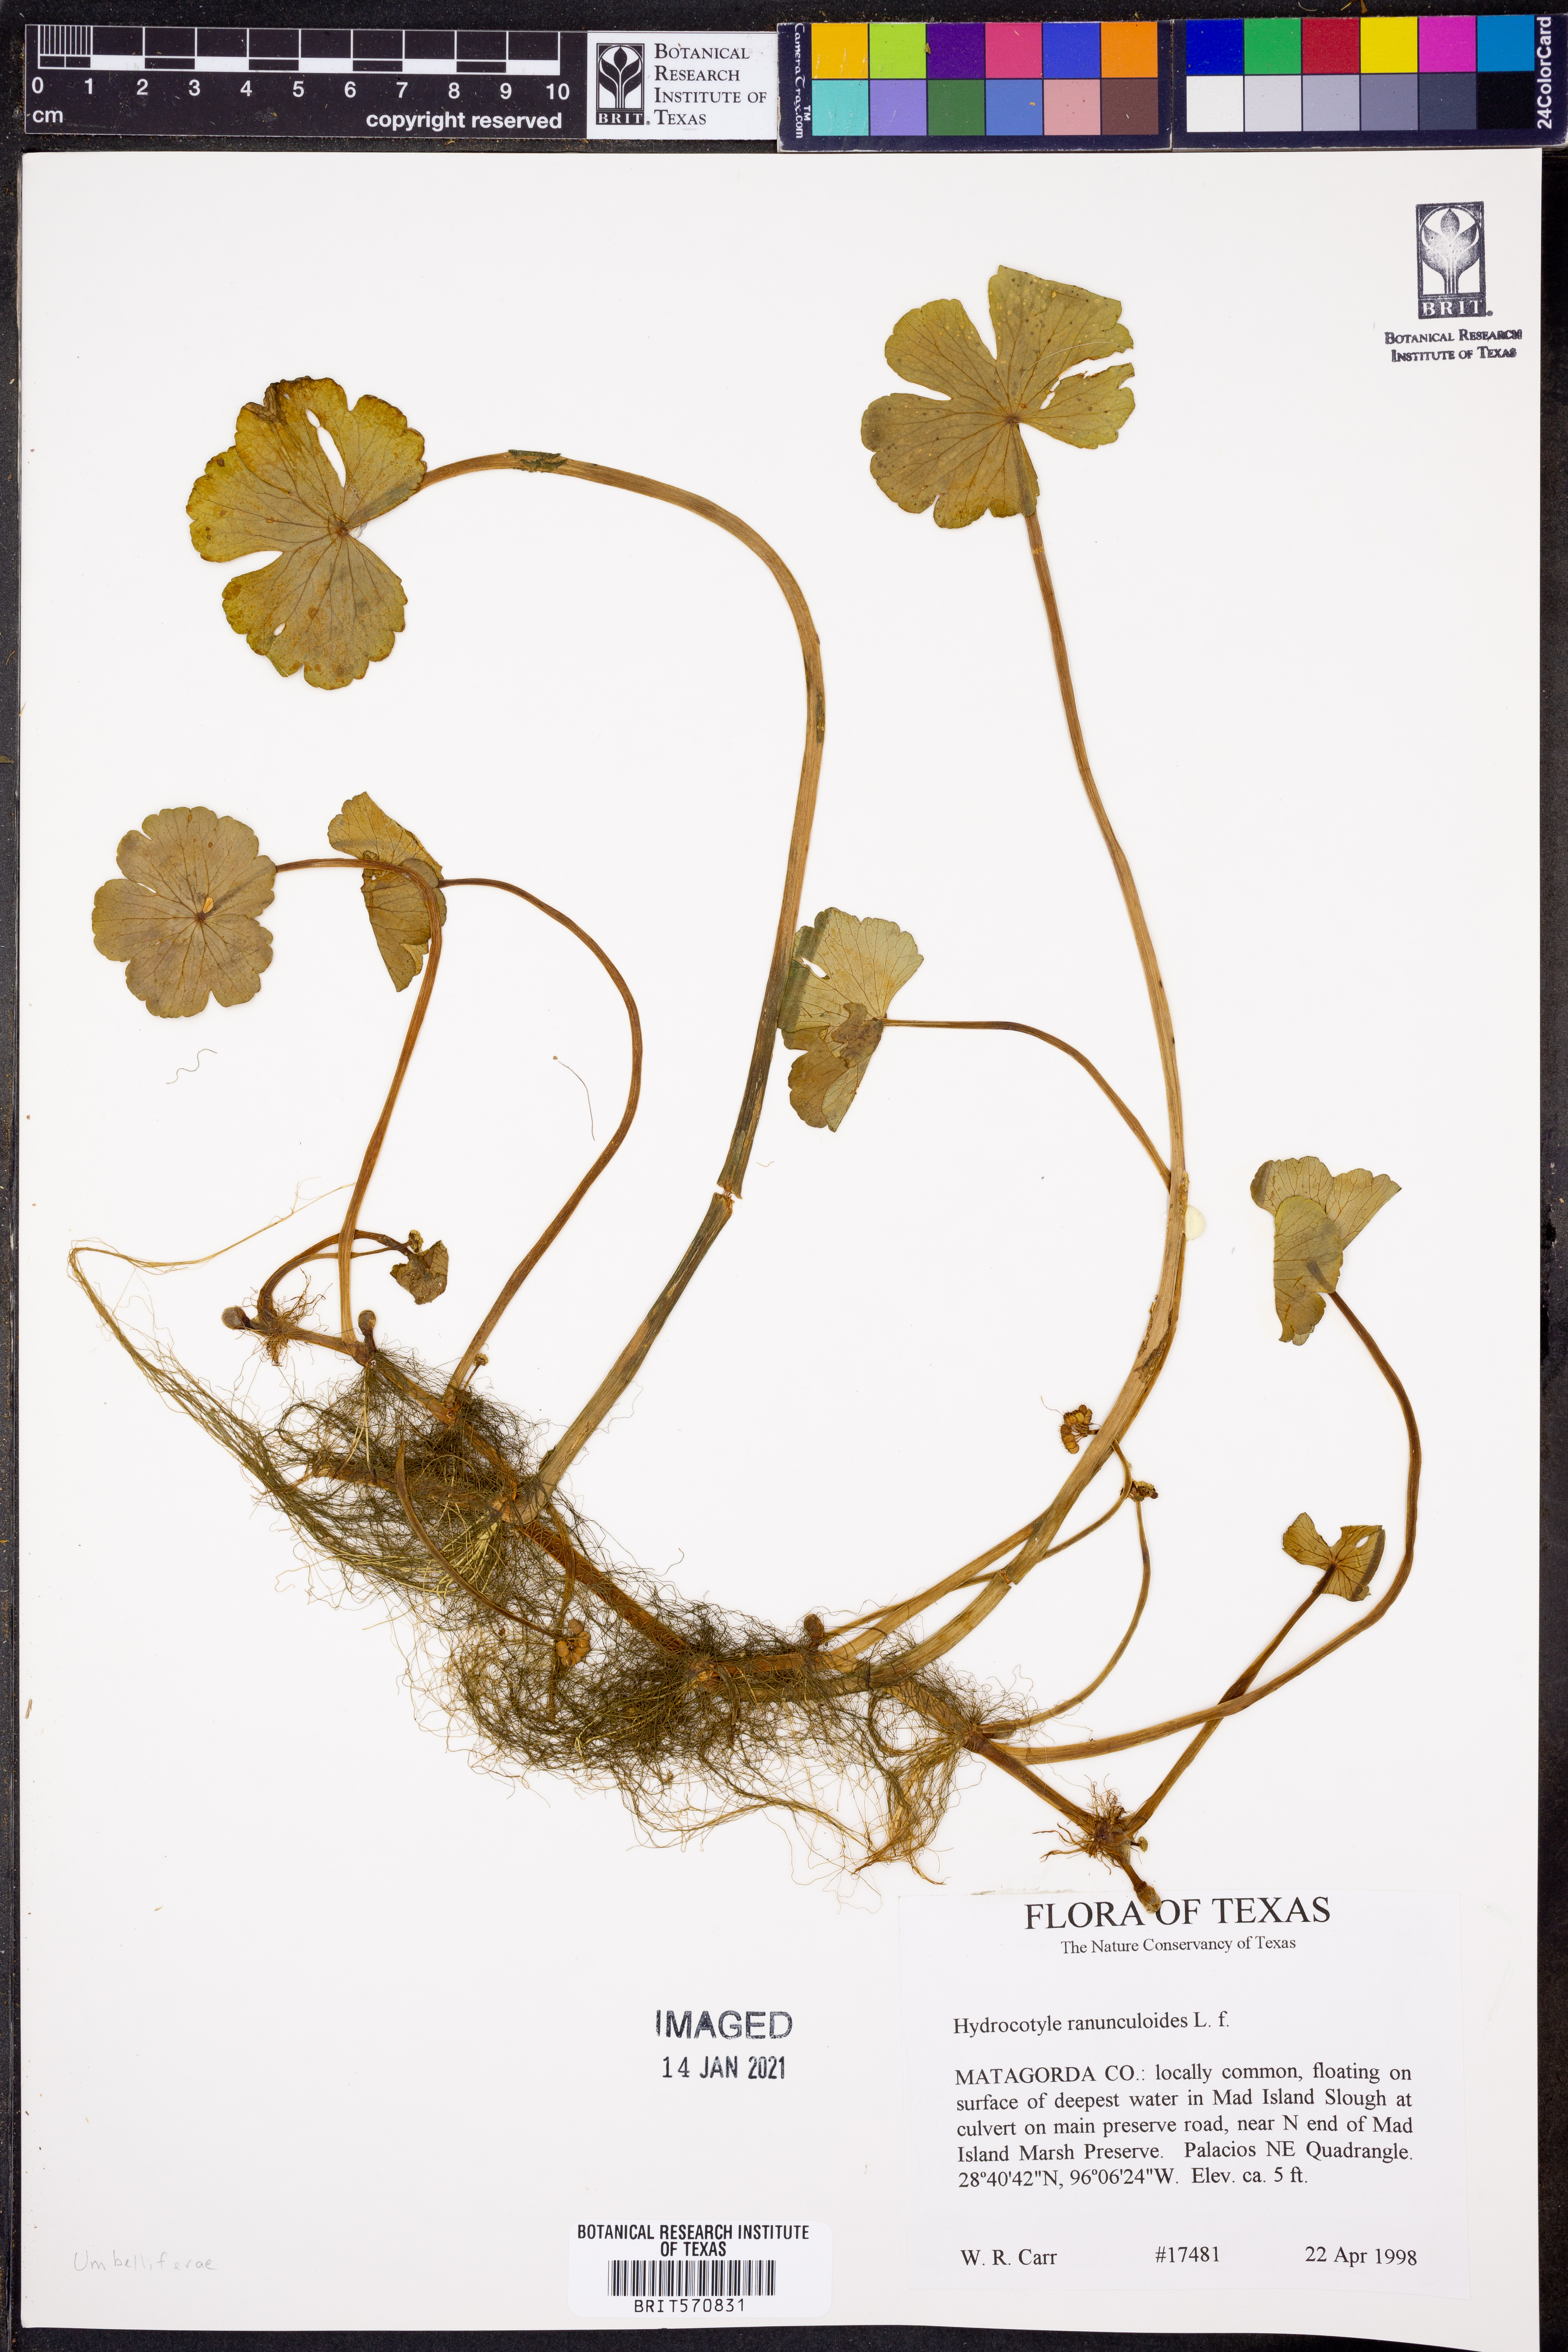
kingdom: Plantae
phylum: Tracheophyta
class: Magnoliopsida
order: Apiales
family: Araliaceae
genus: Hydrocotyle
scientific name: Hydrocotyle ranunculoides
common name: Floating pennywort
